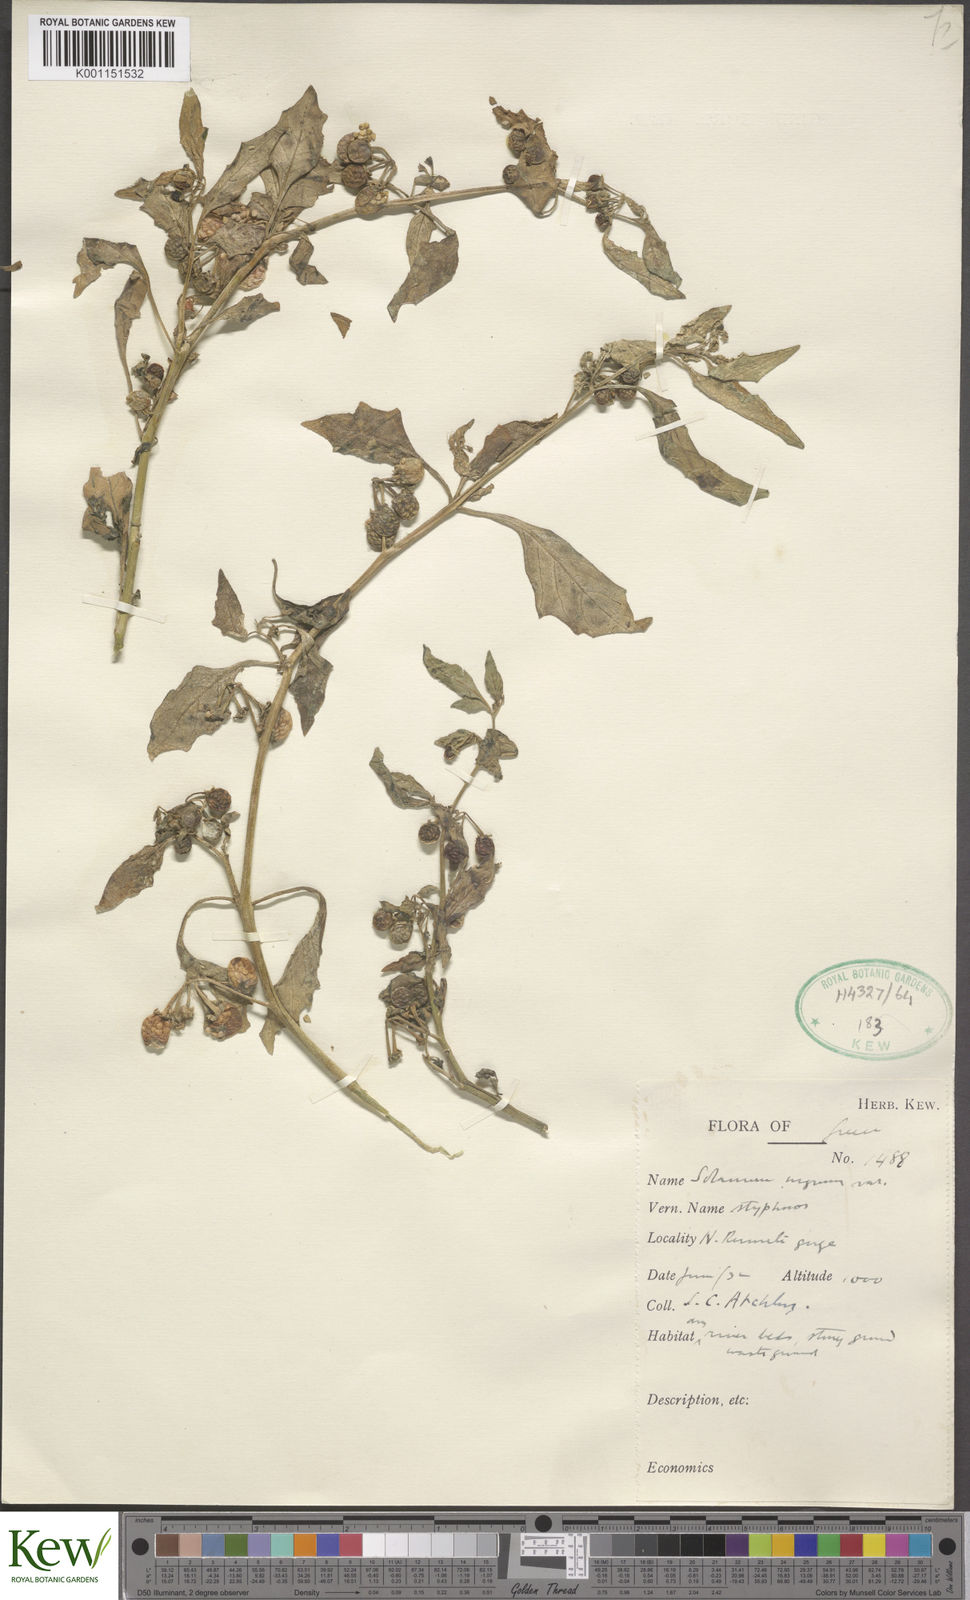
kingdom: Plantae
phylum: Tracheophyta
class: Magnoliopsida
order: Solanales
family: Solanaceae
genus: Solanum
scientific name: Solanum villosum
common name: Red nightshade
